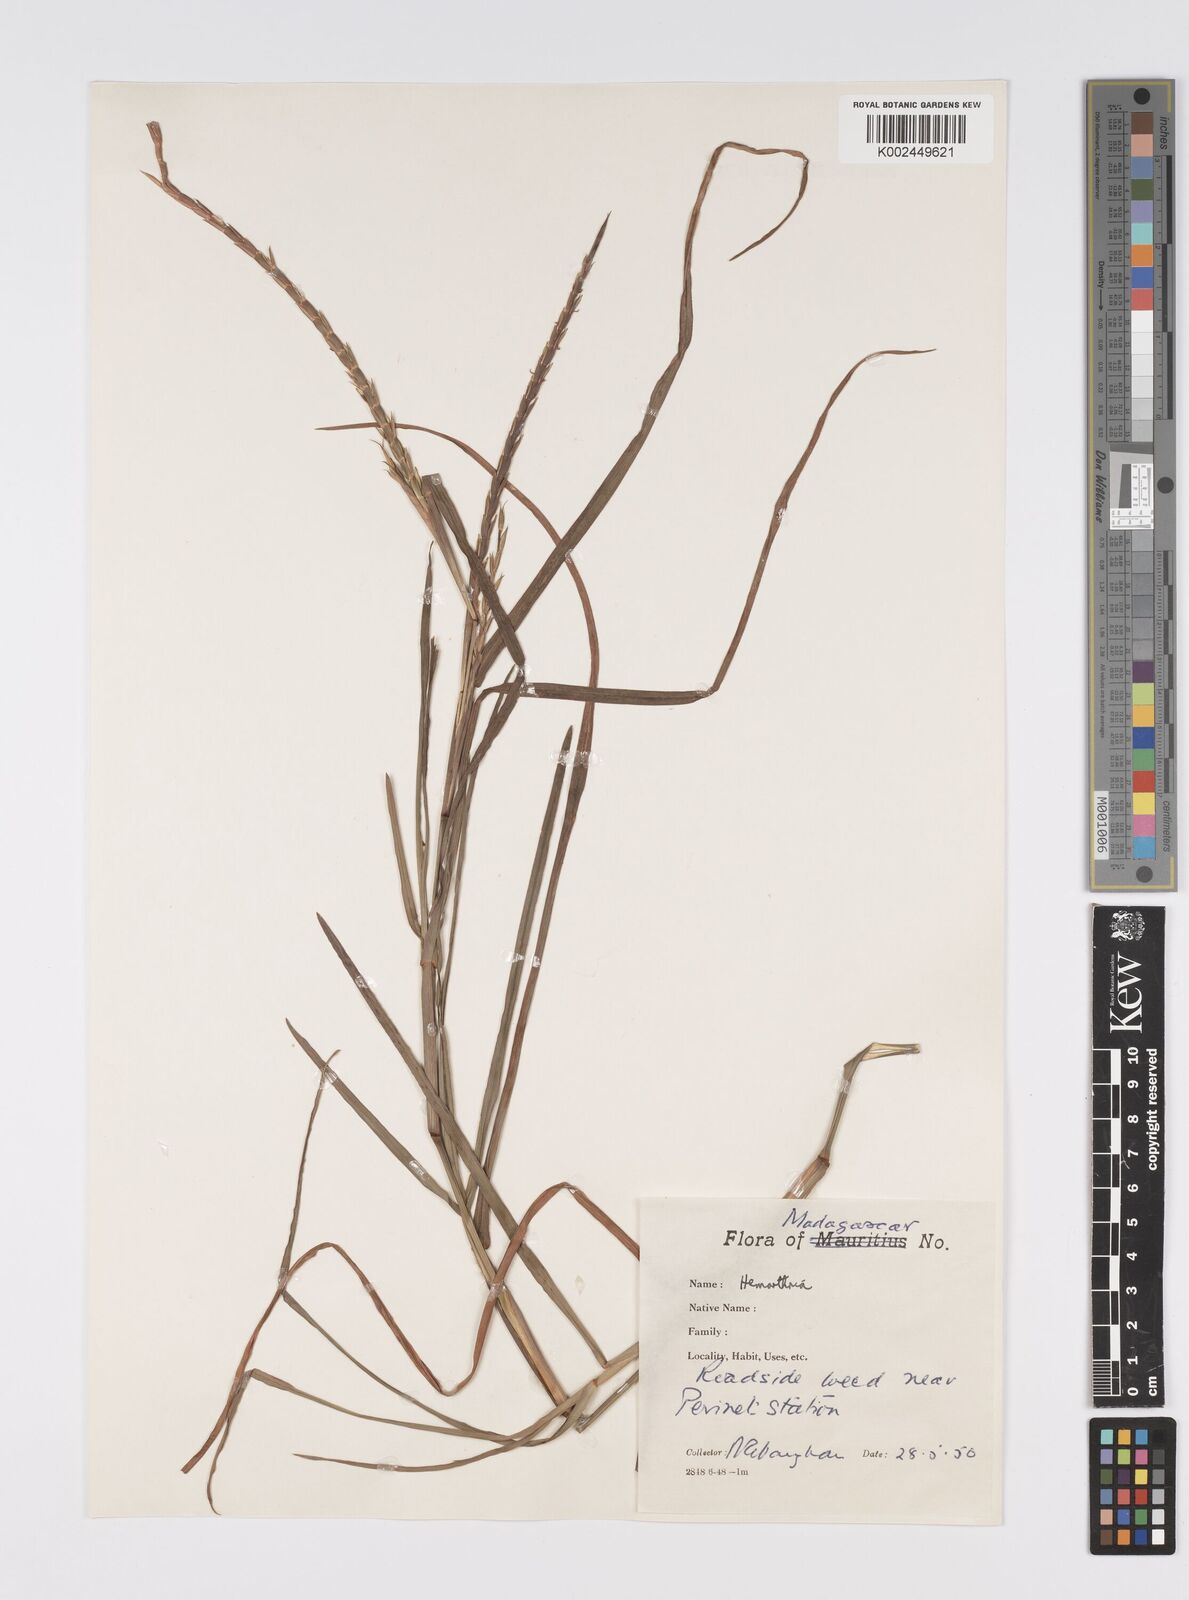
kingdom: Plantae
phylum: Tracheophyta
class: Liliopsida
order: Poales
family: Poaceae
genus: Hemarthria
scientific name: Hemarthria altissima
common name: African jointgrass
